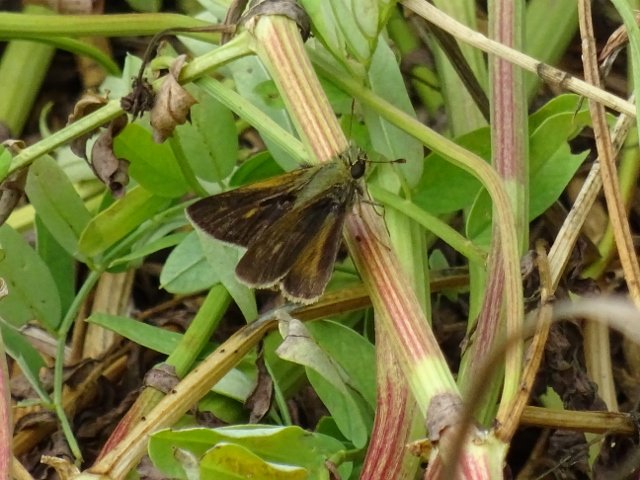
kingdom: Animalia
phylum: Arthropoda
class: Insecta
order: Lepidoptera
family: Hesperiidae
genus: Polites
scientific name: Polites themistocles
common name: Tawny-edged Skipper
